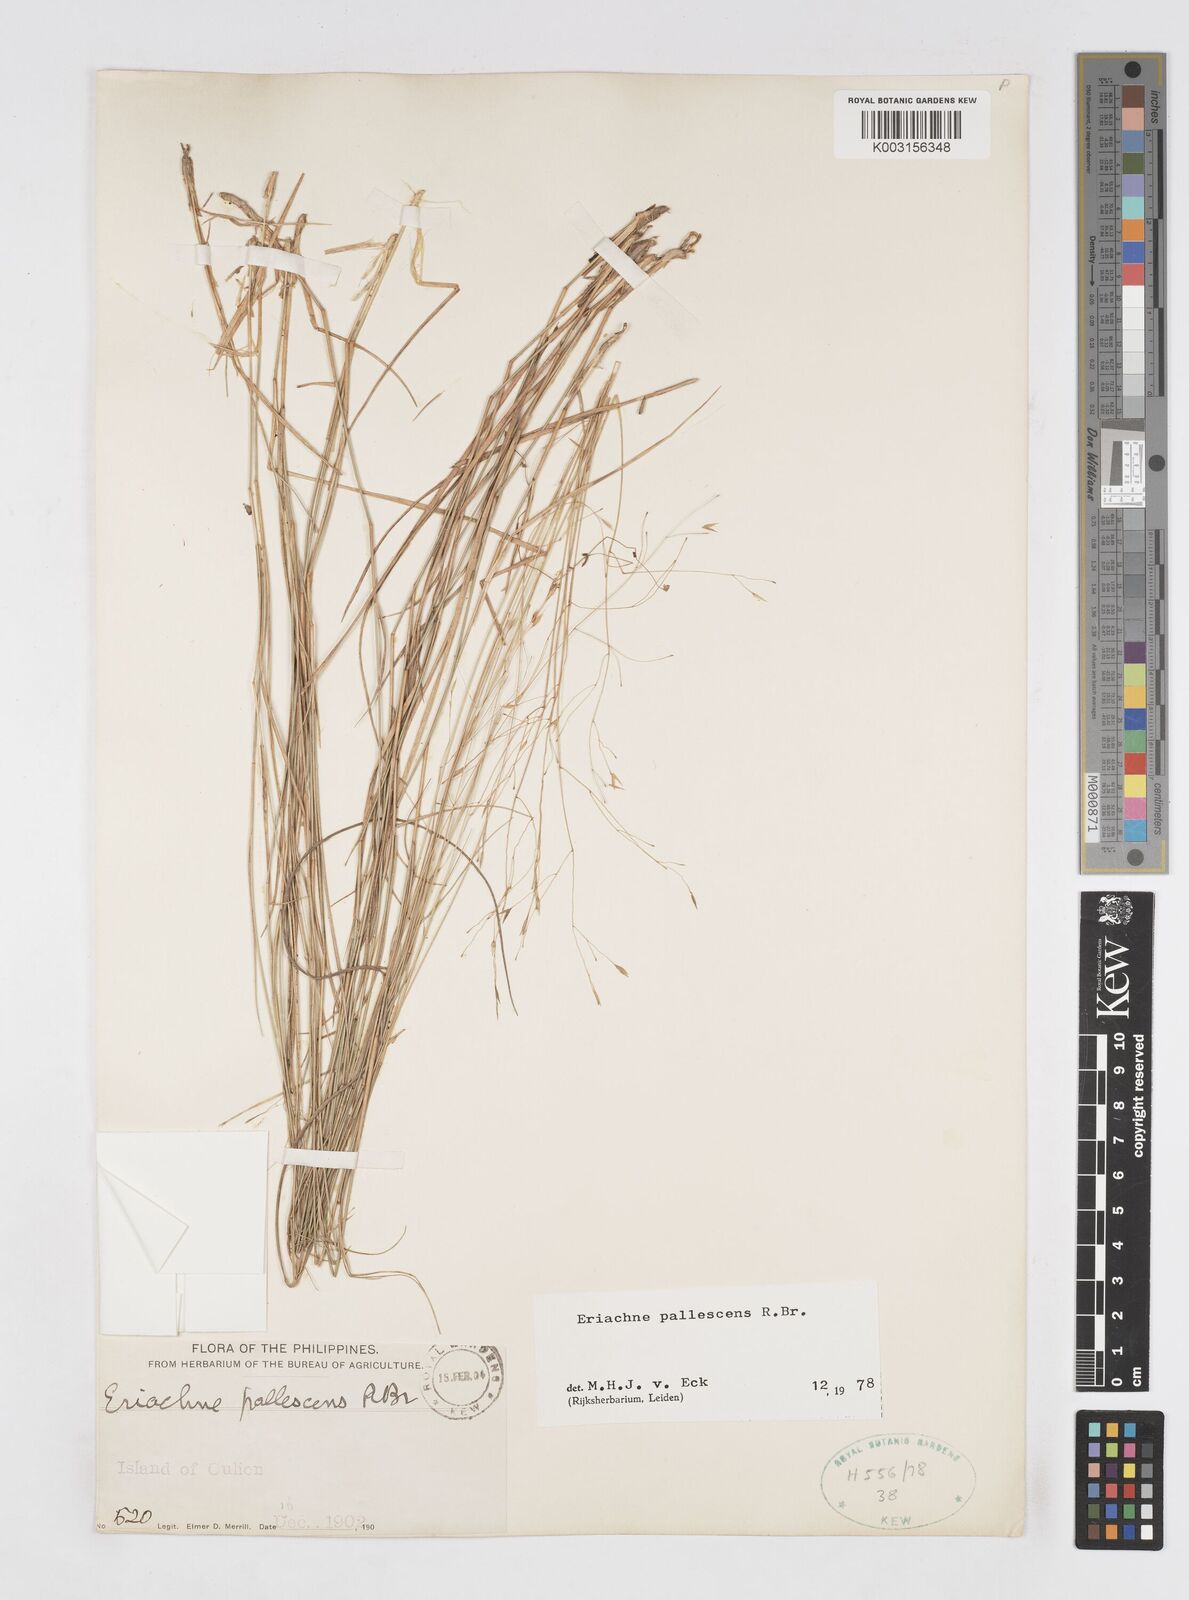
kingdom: Plantae
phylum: Tracheophyta
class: Liliopsida
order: Poales
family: Poaceae
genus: Eriachne
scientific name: Eriachne pallescens
